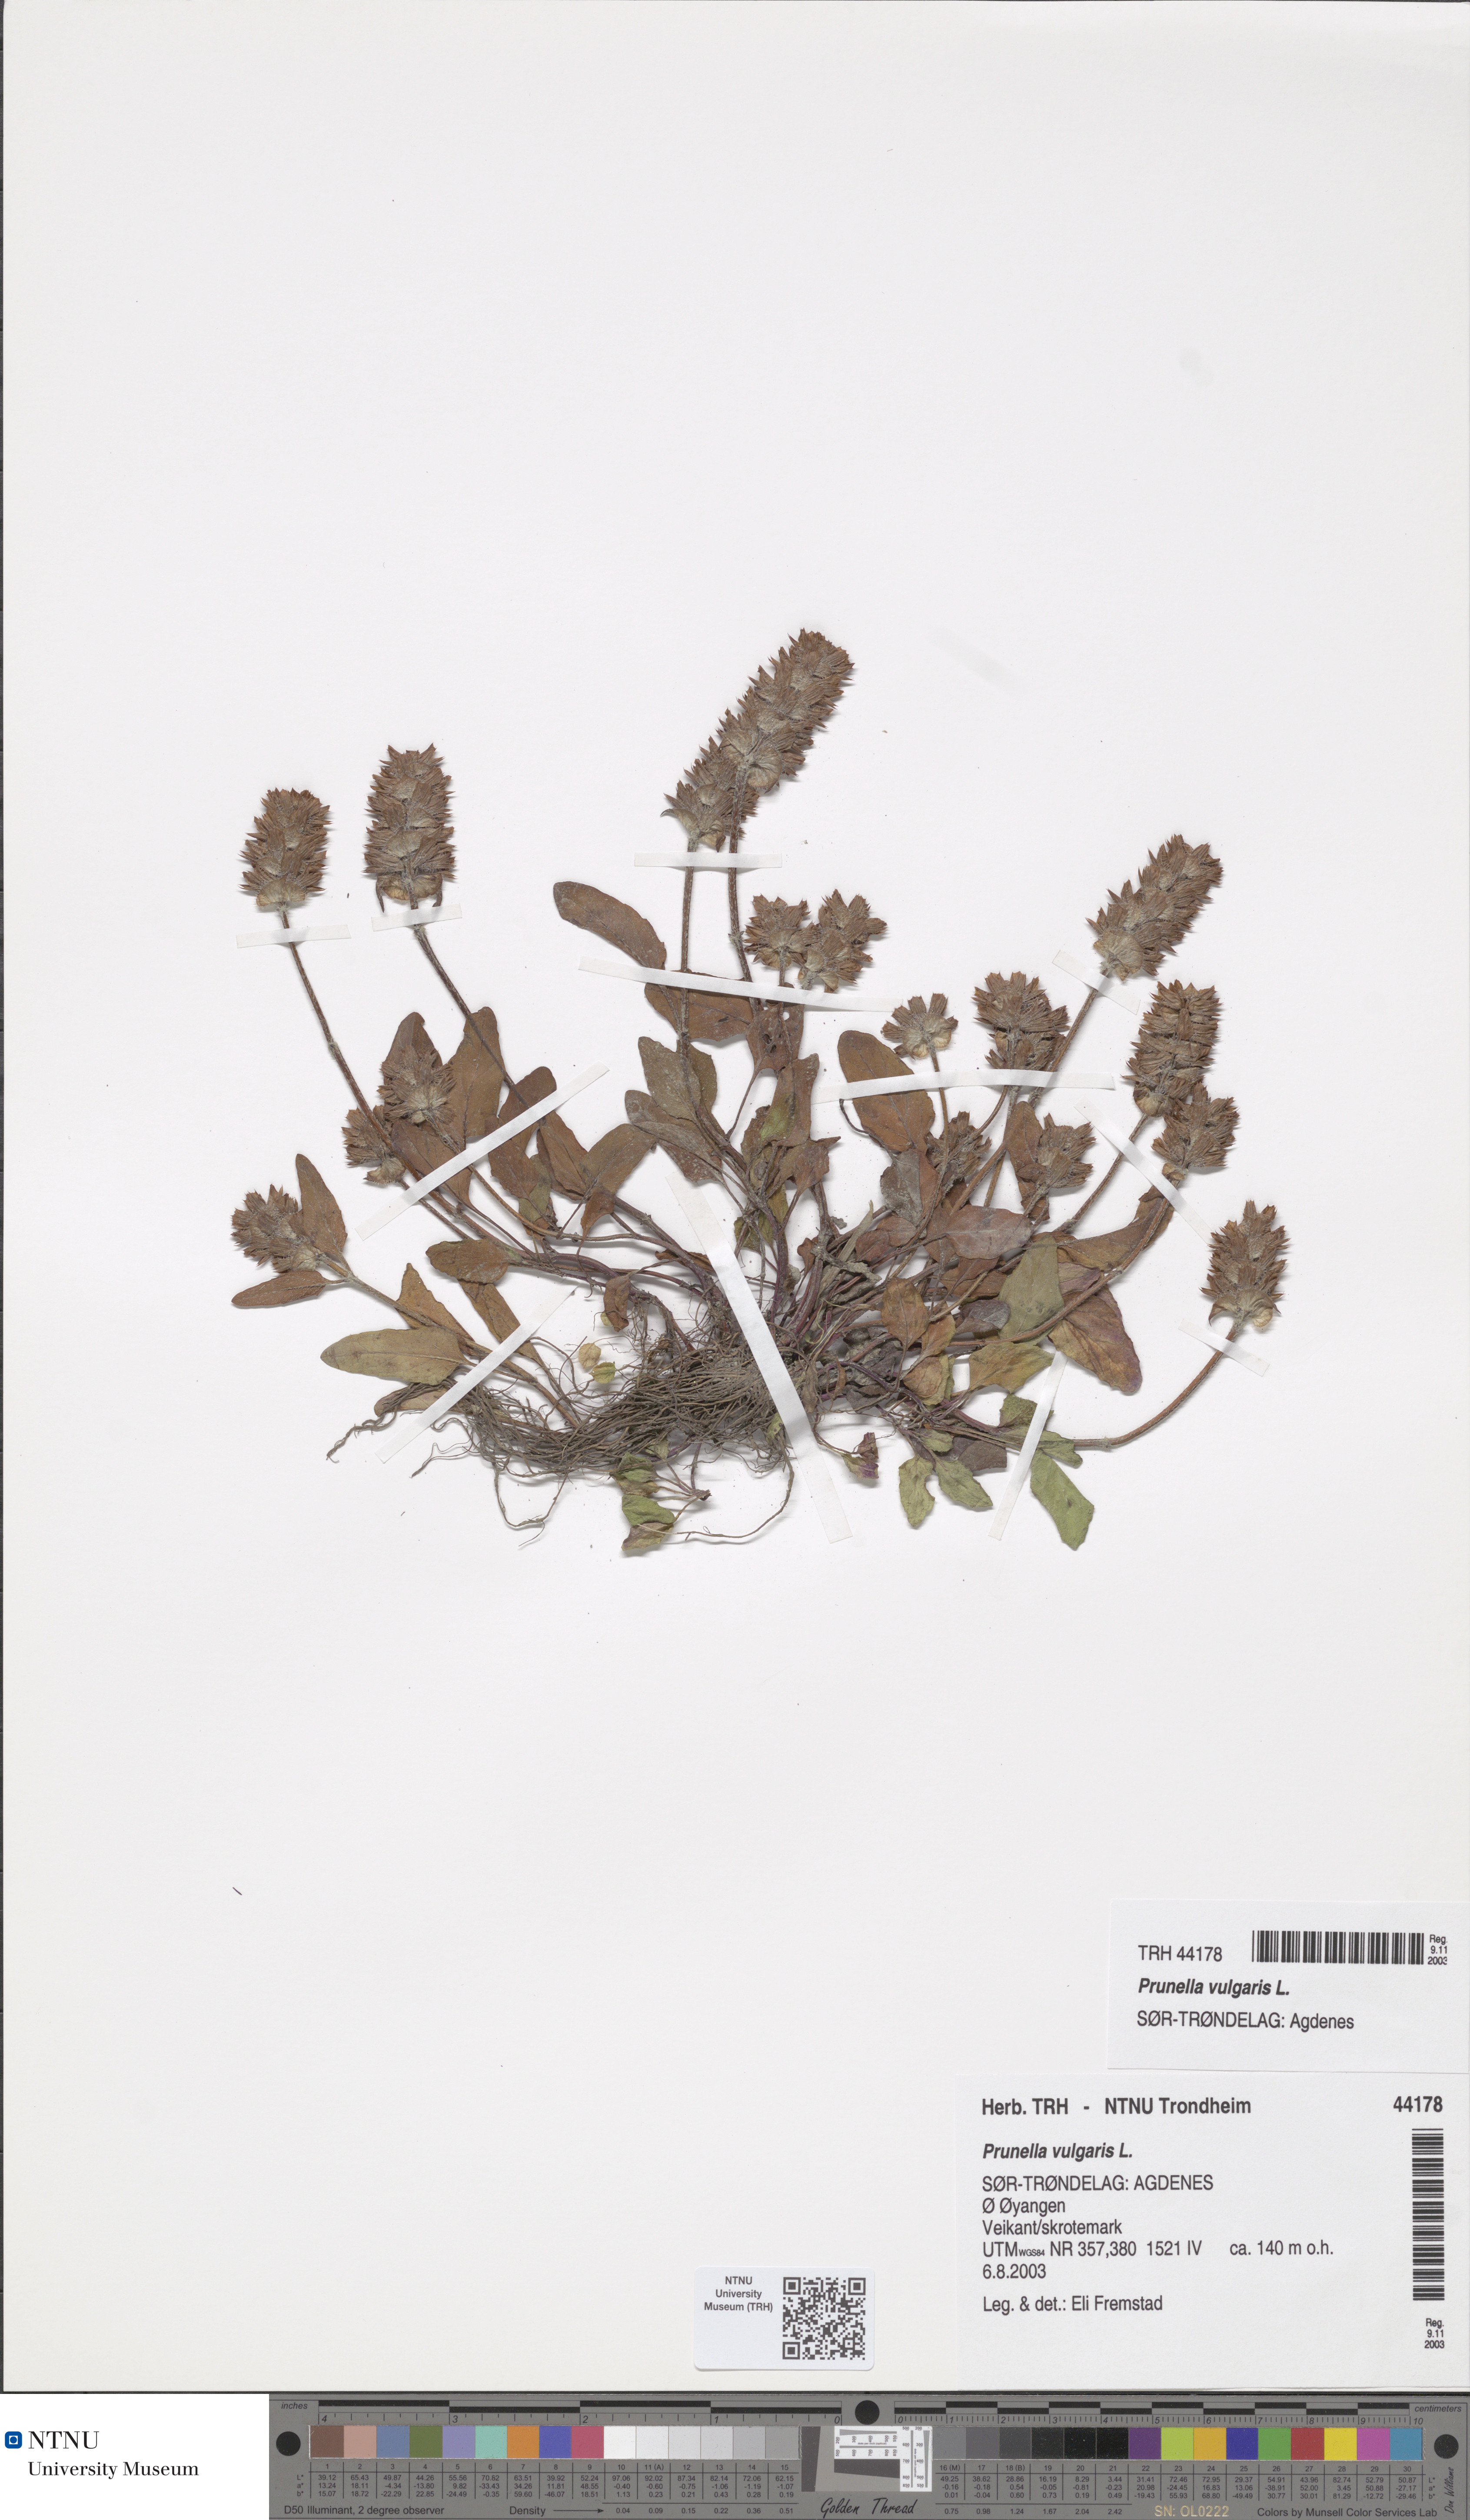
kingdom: Plantae
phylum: Tracheophyta
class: Magnoliopsida
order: Caryophyllales
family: Polygonaceae
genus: Reynoutria
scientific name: Reynoutria sachalinensis
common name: Giant knotweed
